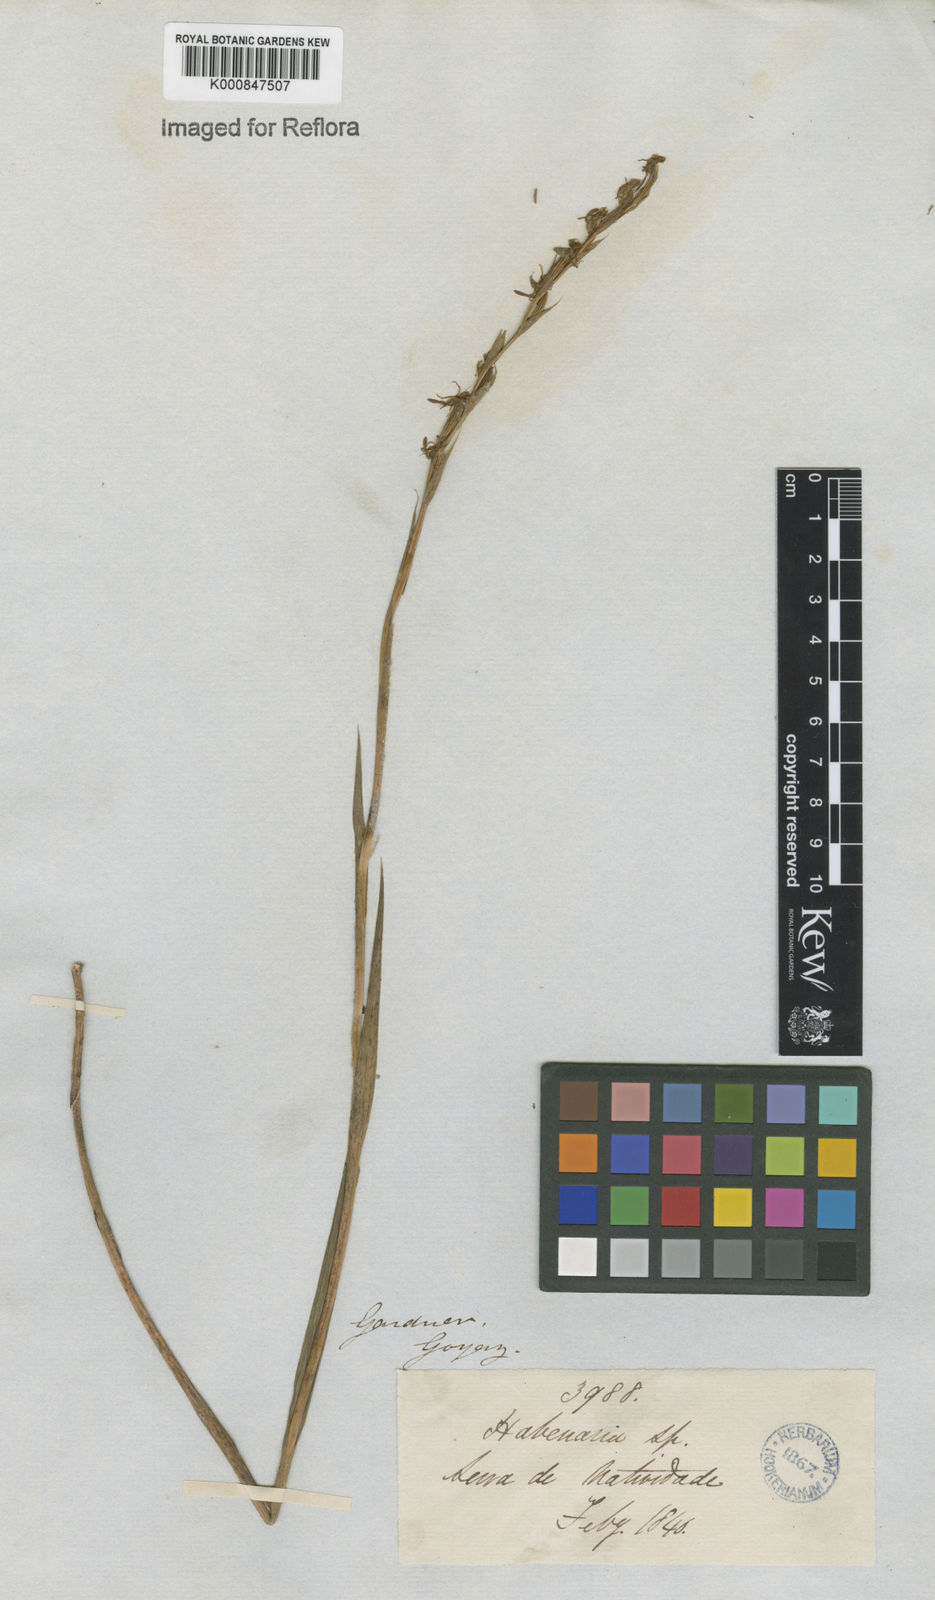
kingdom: Plantae
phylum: Tracheophyta
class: Liliopsida
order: Asparagales
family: Orchidaceae
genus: Habenaria
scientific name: Habenaria
